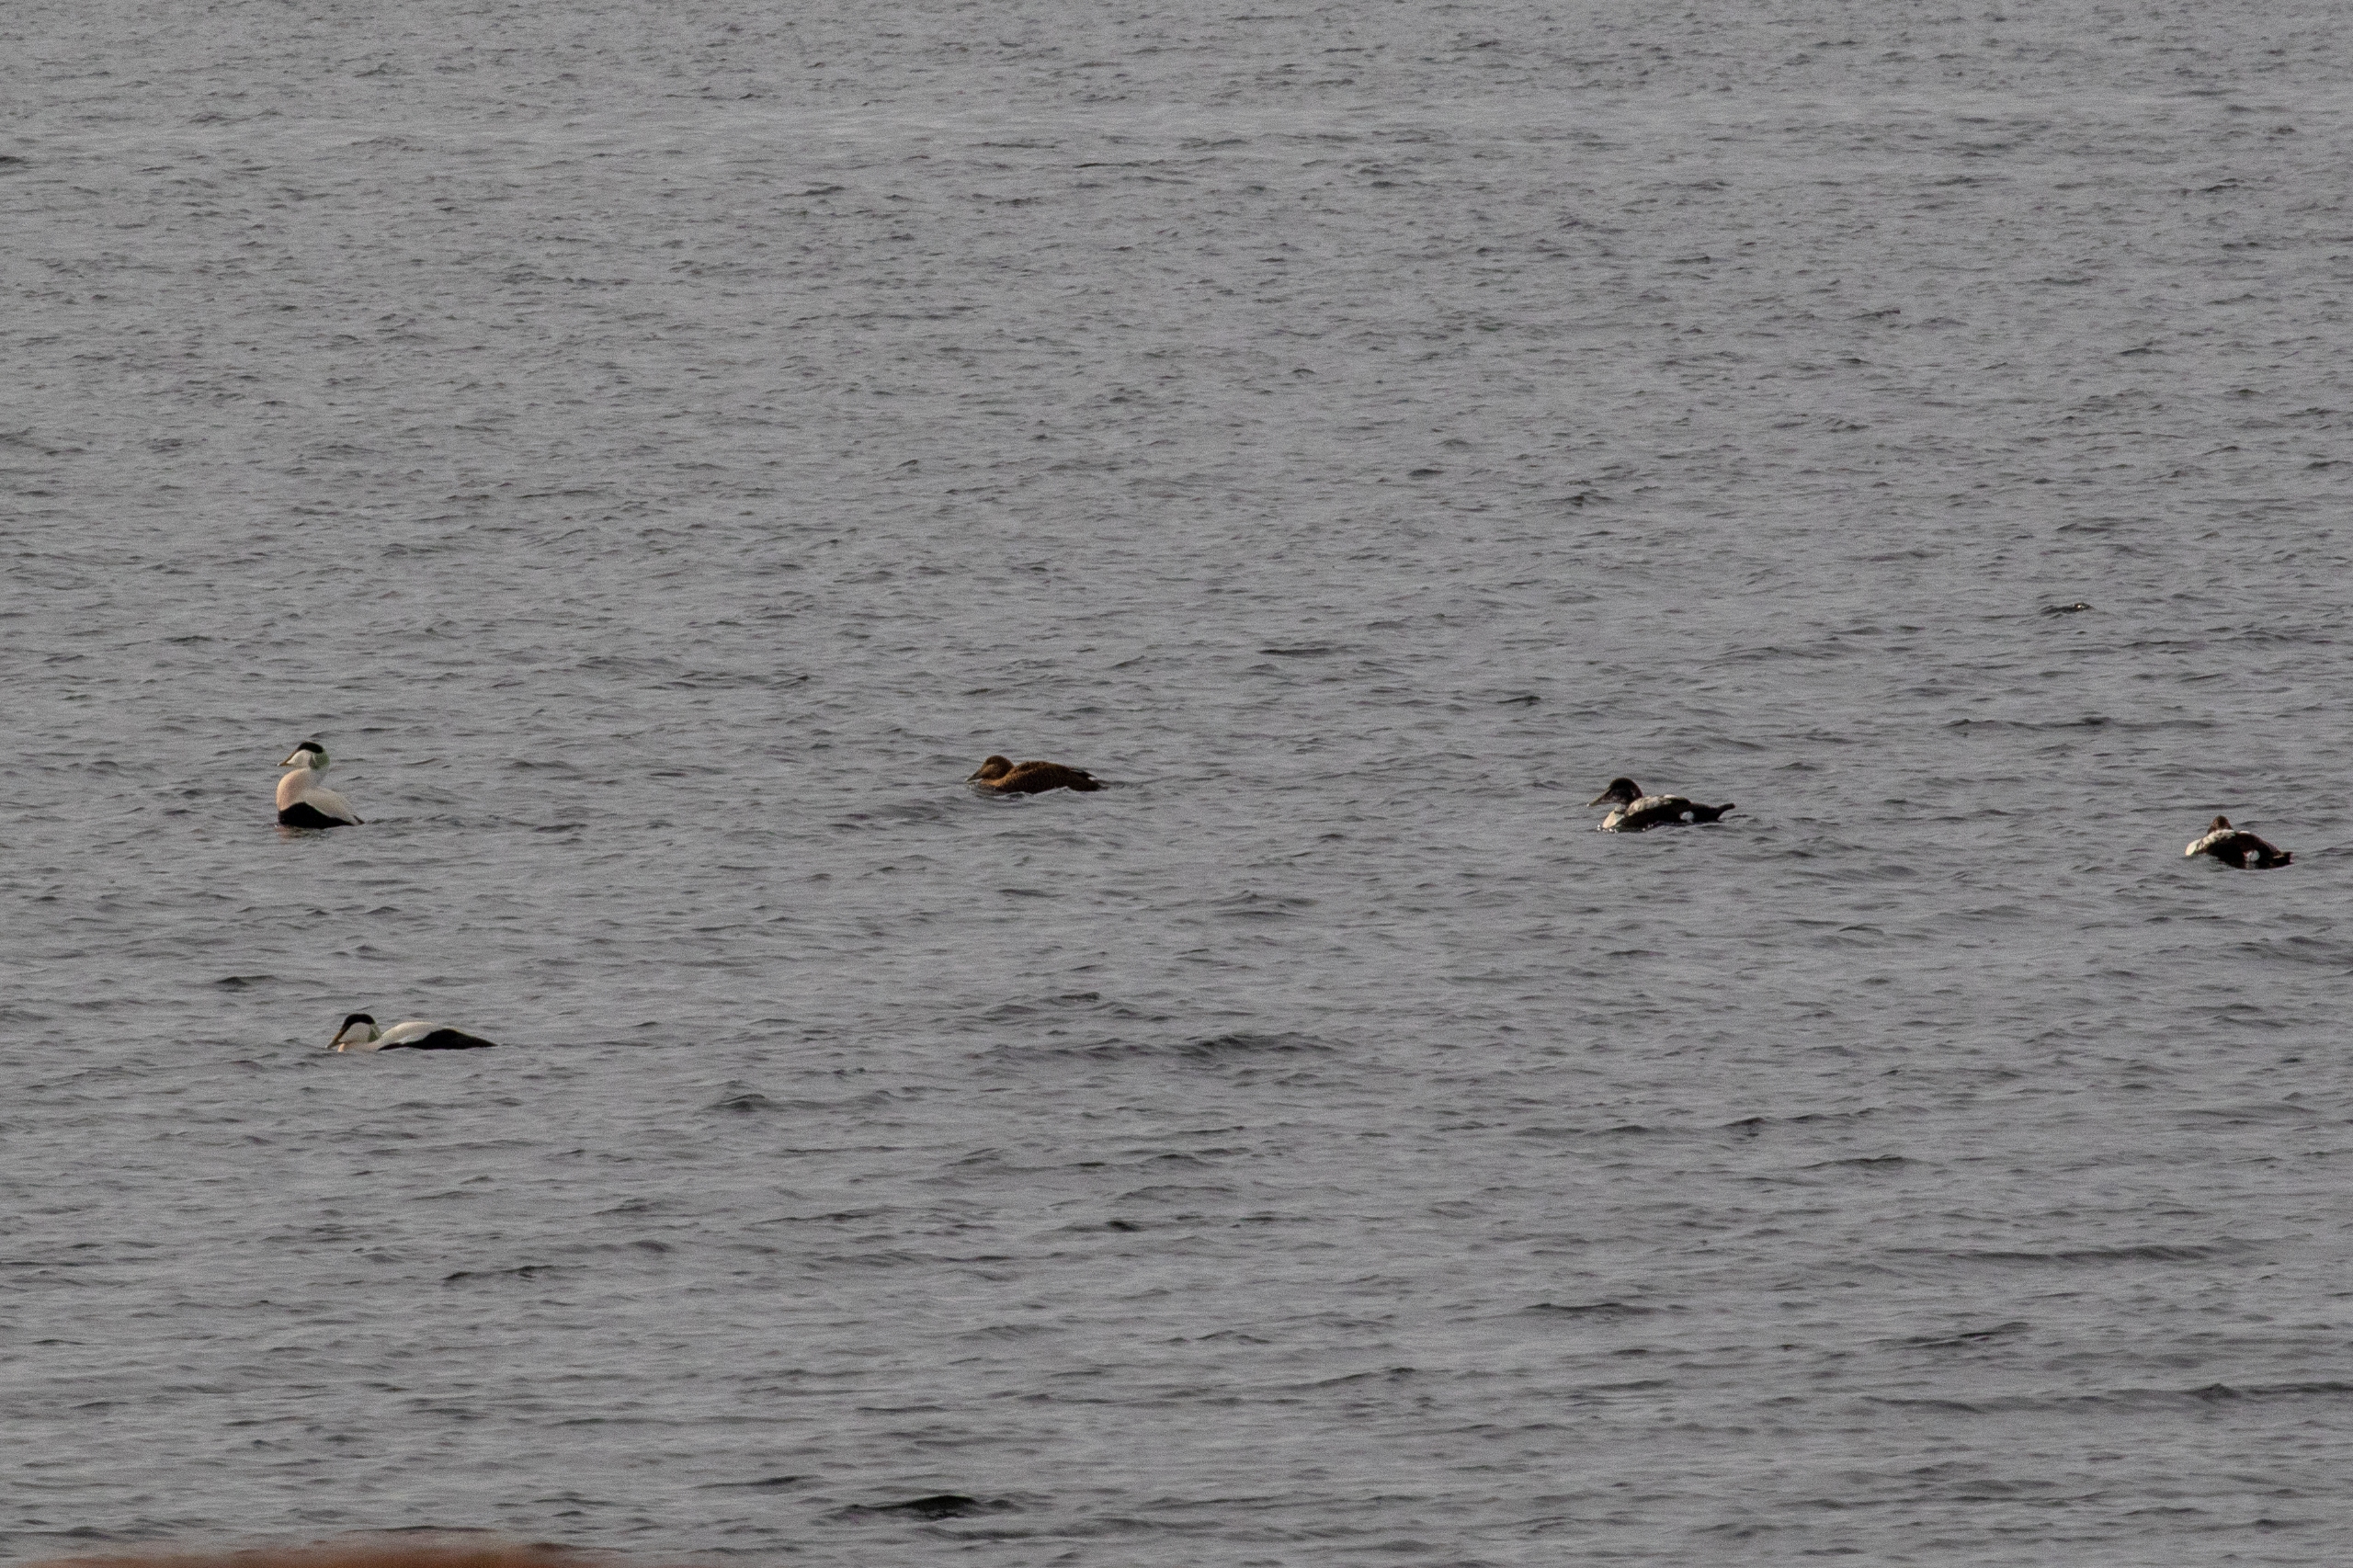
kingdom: Animalia
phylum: Chordata
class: Aves
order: Anseriformes
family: Anatidae
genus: Somateria
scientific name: Somateria mollissima
